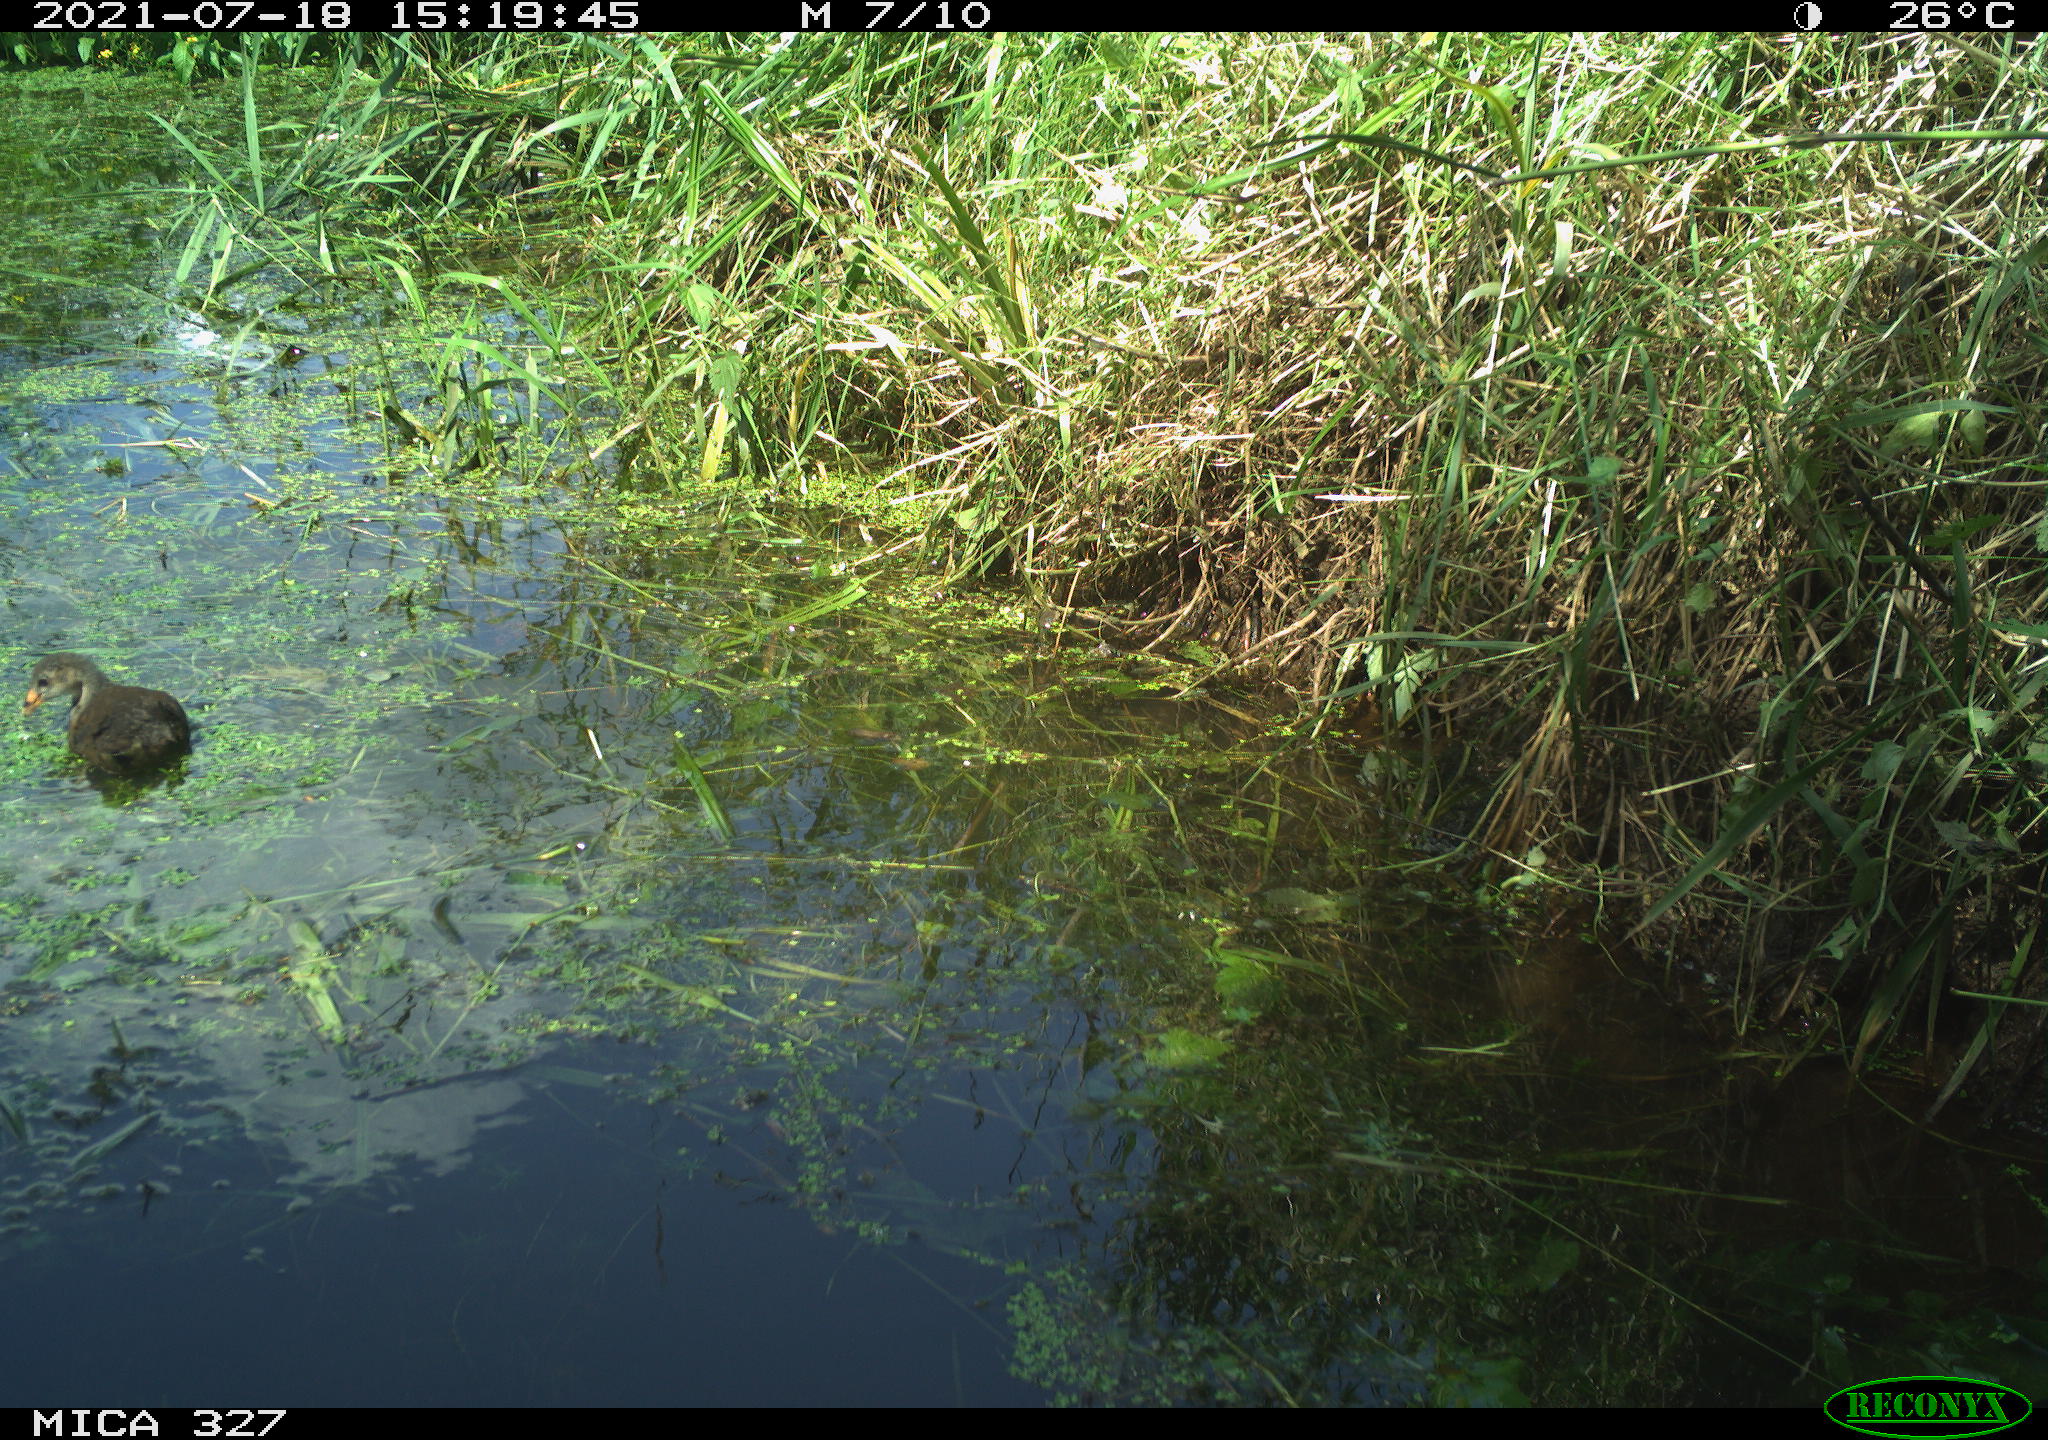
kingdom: Animalia
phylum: Chordata
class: Aves
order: Gruiformes
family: Rallidae
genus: Gallinula
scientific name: Gallinula chloropus
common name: Common moorhen
